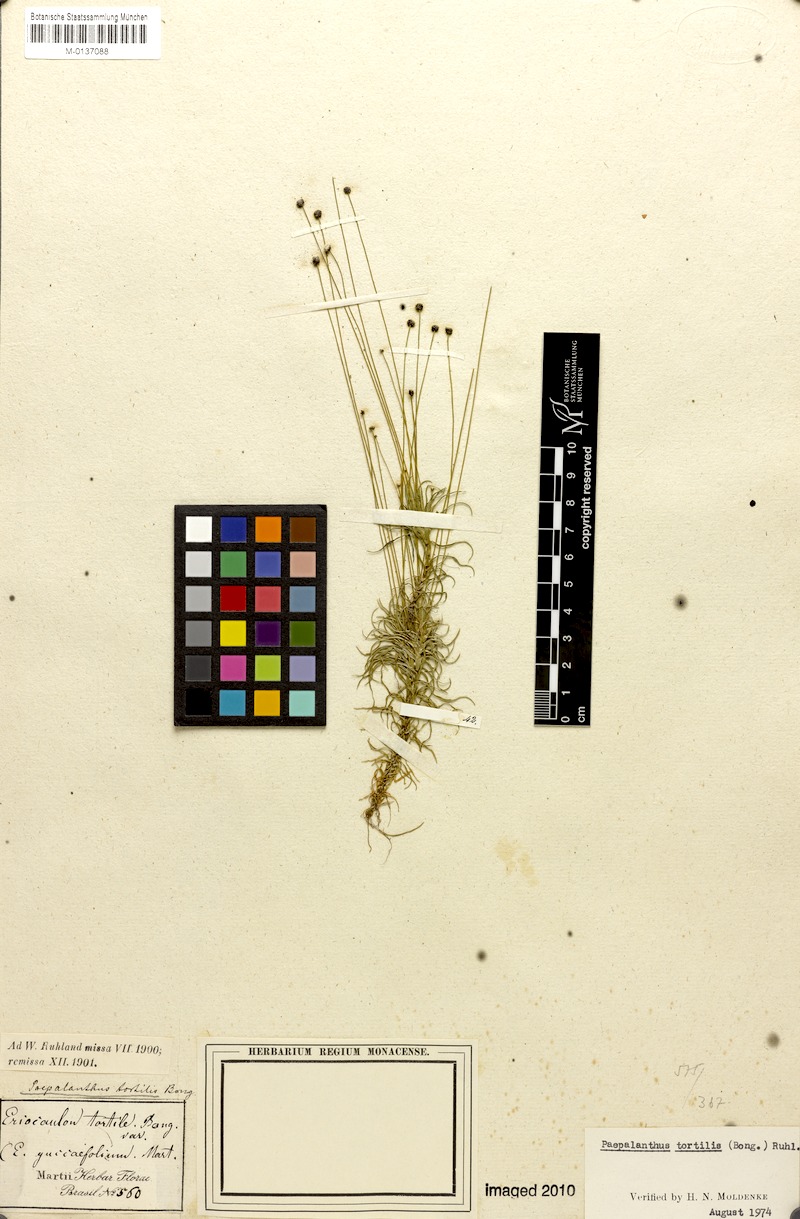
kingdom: Plantae
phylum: Tracheophyta
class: Liliopsida
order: Poales
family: Eriocaulaceae
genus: Paepalanthus
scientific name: Paepalanthus tortilis
